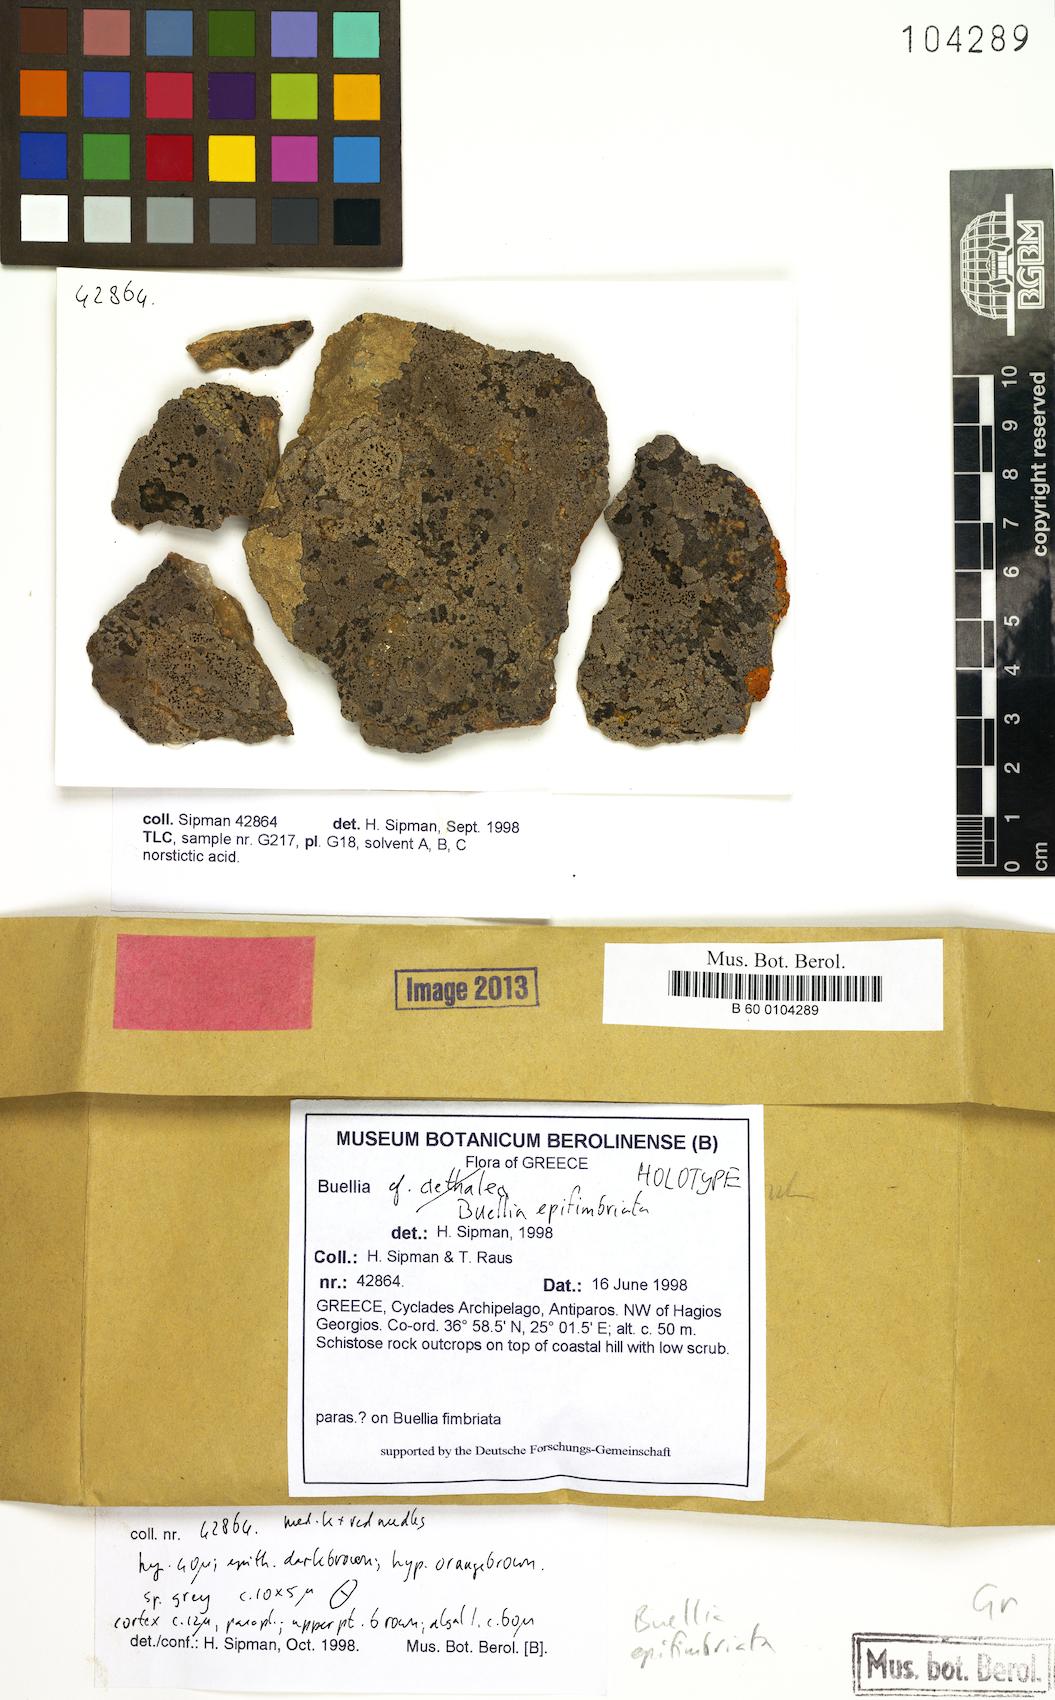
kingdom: Fungi
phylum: Ascomycota
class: Lecanoromycetes
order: Caliciales
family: Caliciaceae
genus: Buellia
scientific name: Buellia epifimbriata
